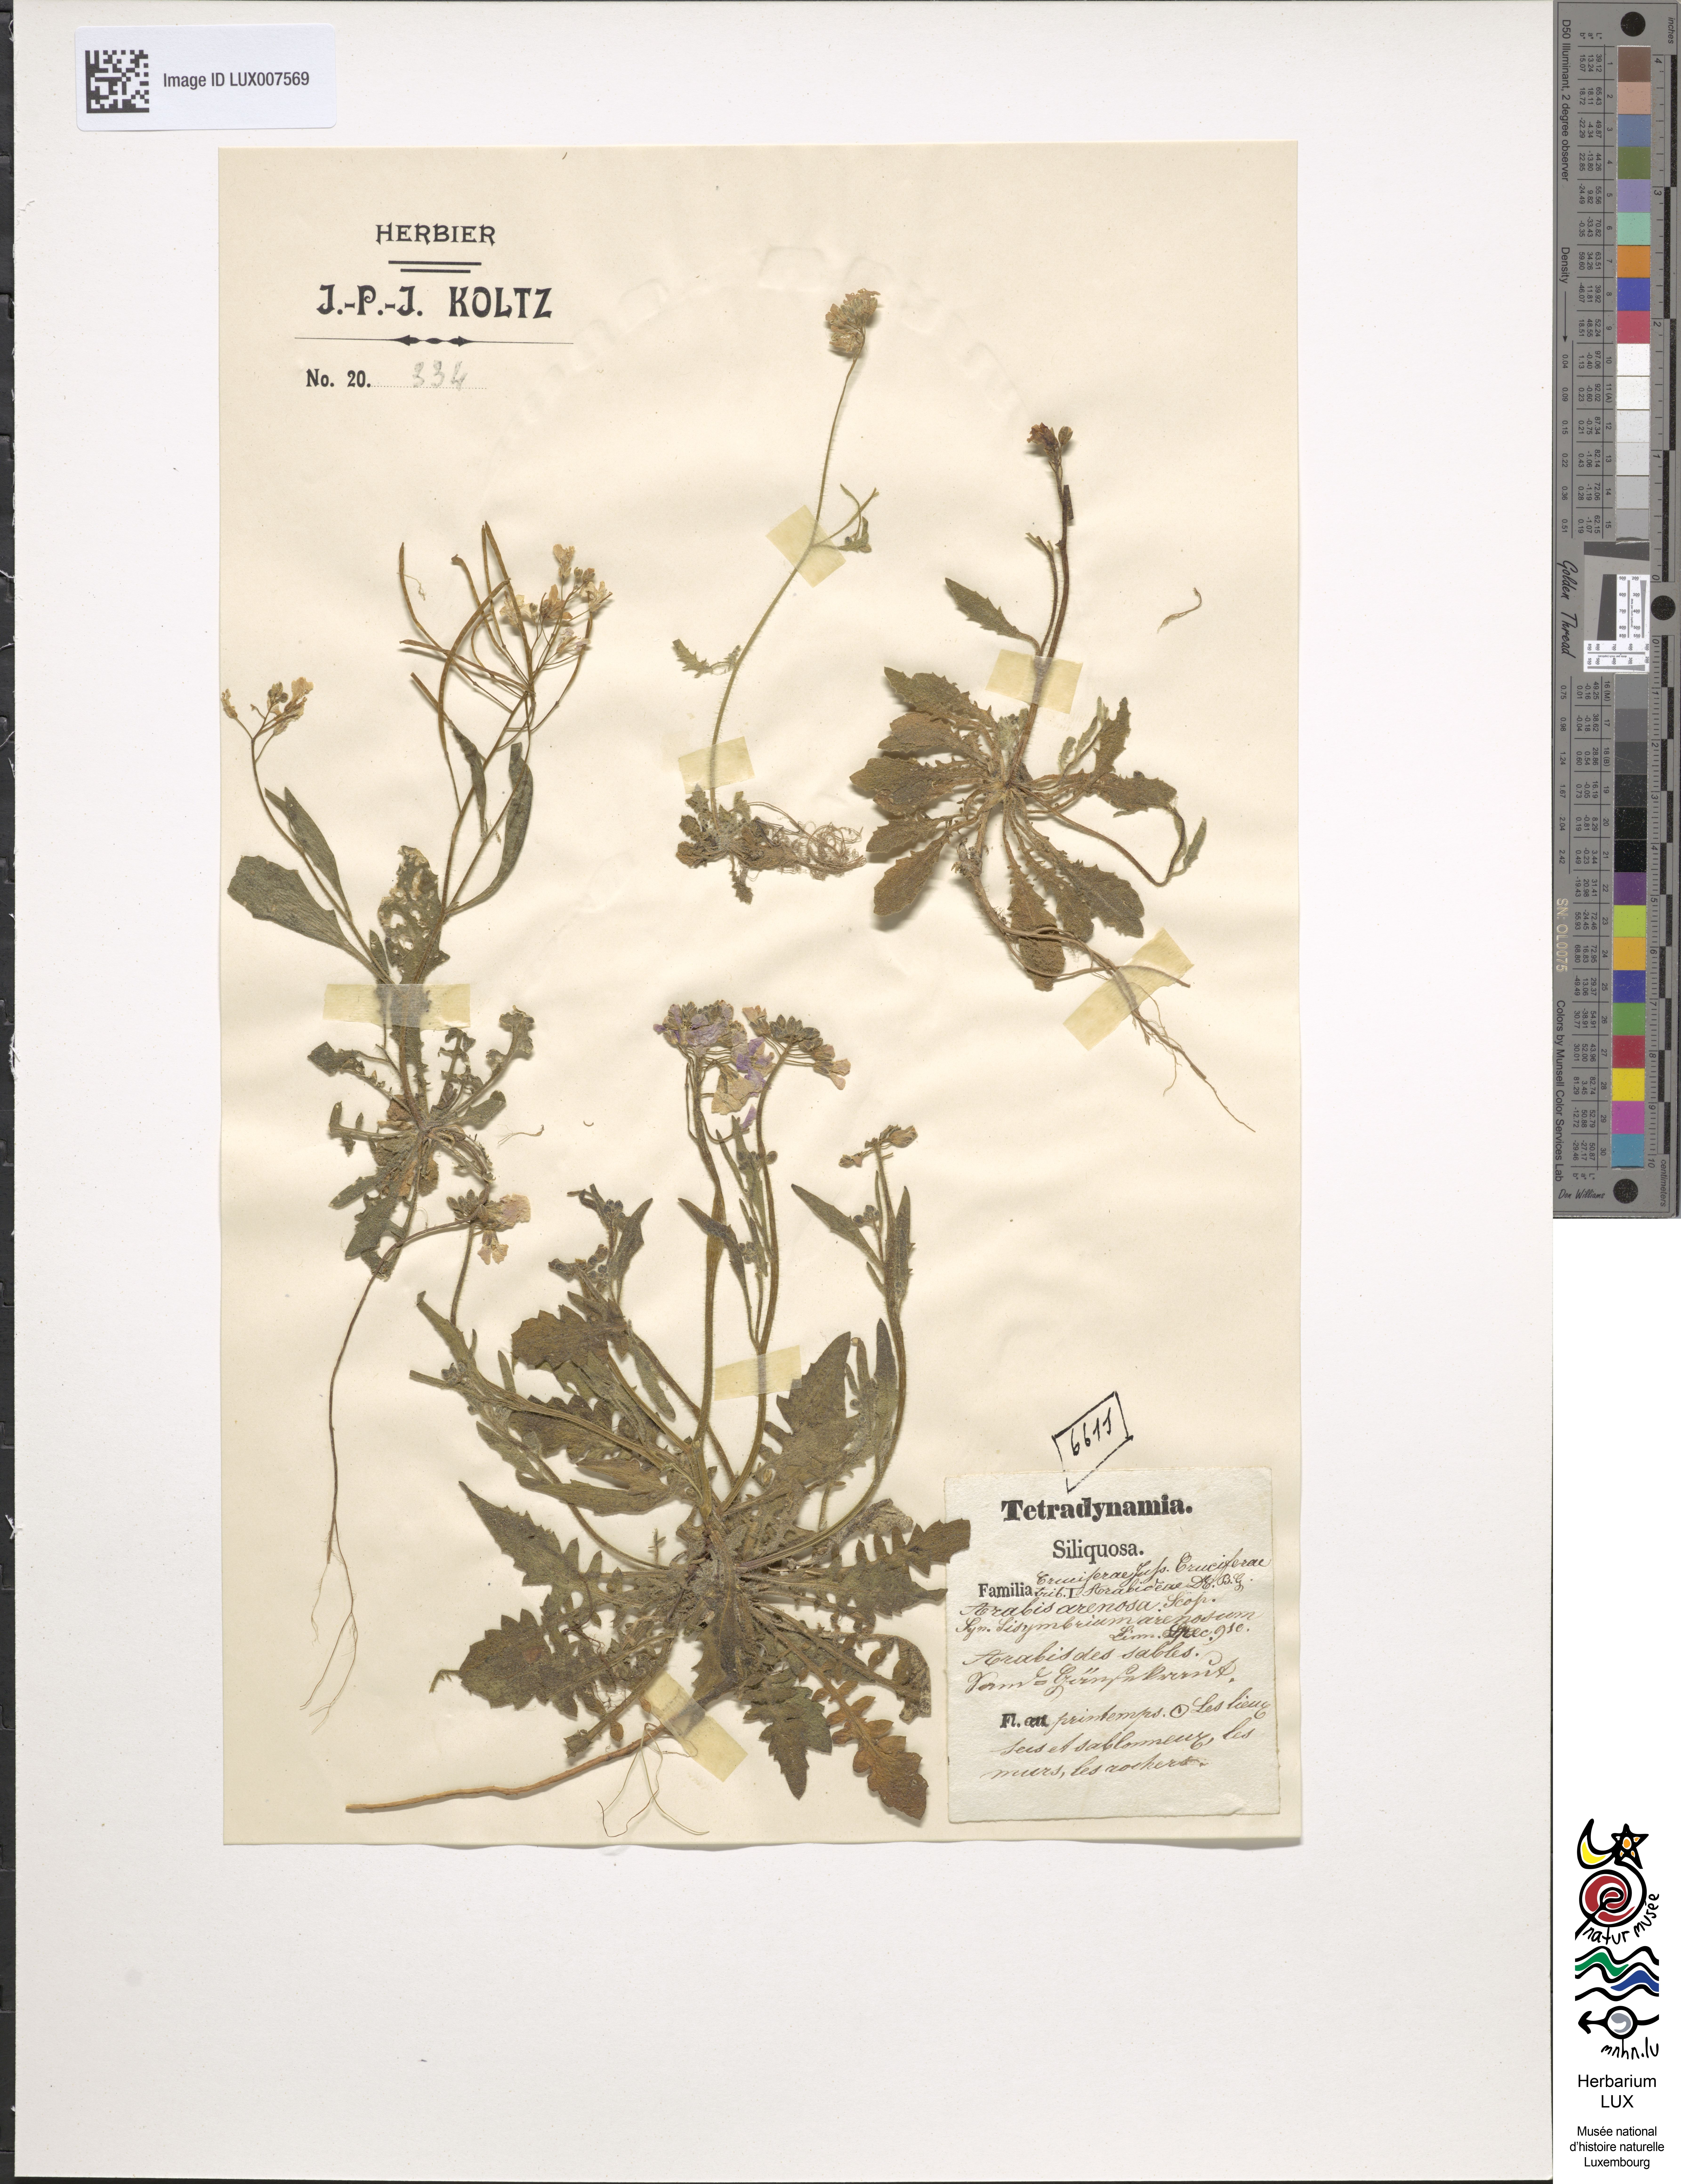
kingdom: Plantae
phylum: Tracheophyta
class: Magnoliopsida
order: Brassicales
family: Brassicaceae
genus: Arabidopsis
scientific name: Arabidopsis arenosa
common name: Sand rock-cress
